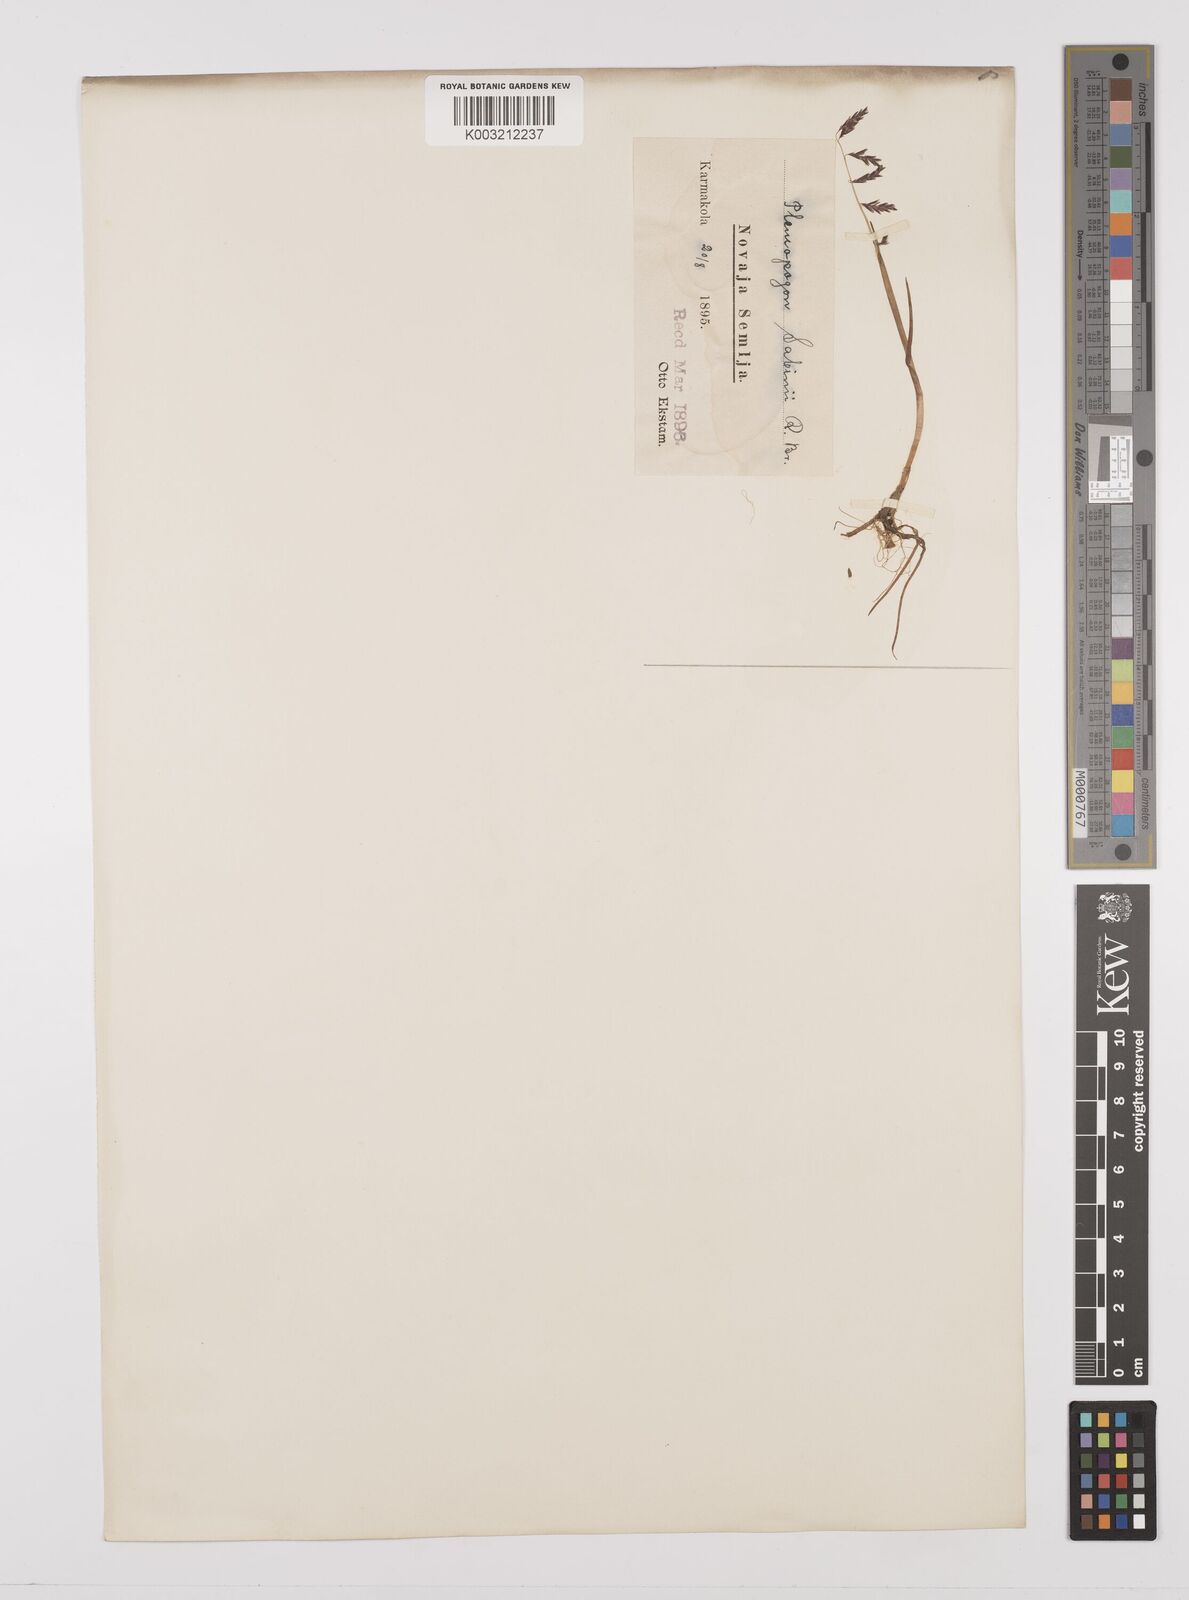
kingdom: Plantae
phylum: Tracheophyta
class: Liliopsida
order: Poales
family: Poaceae
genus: Pleuropogon
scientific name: Pleuropogon sabinei
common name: Sabine's false semaphoregrass
